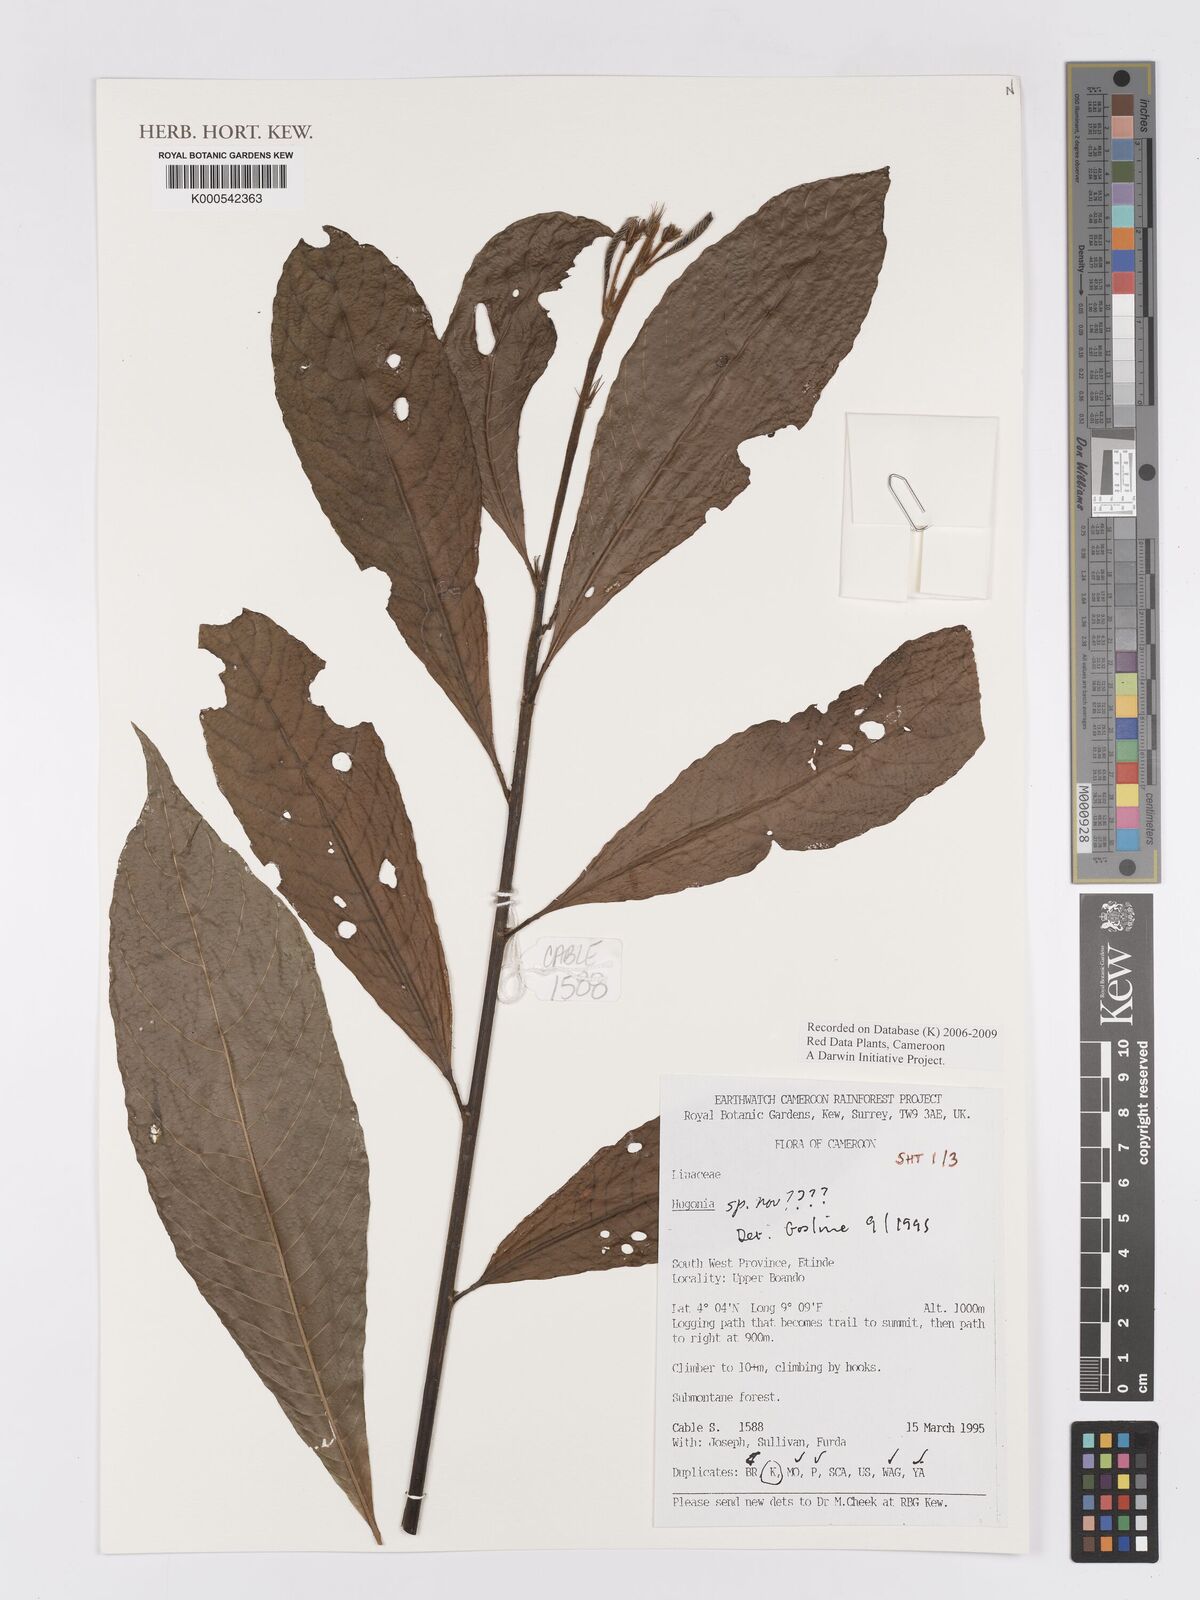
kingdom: Plantae
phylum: Tracheophyta
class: Magnoliopsida
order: Malpighiales
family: Linaceae
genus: Hugonia
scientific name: Hugonia
